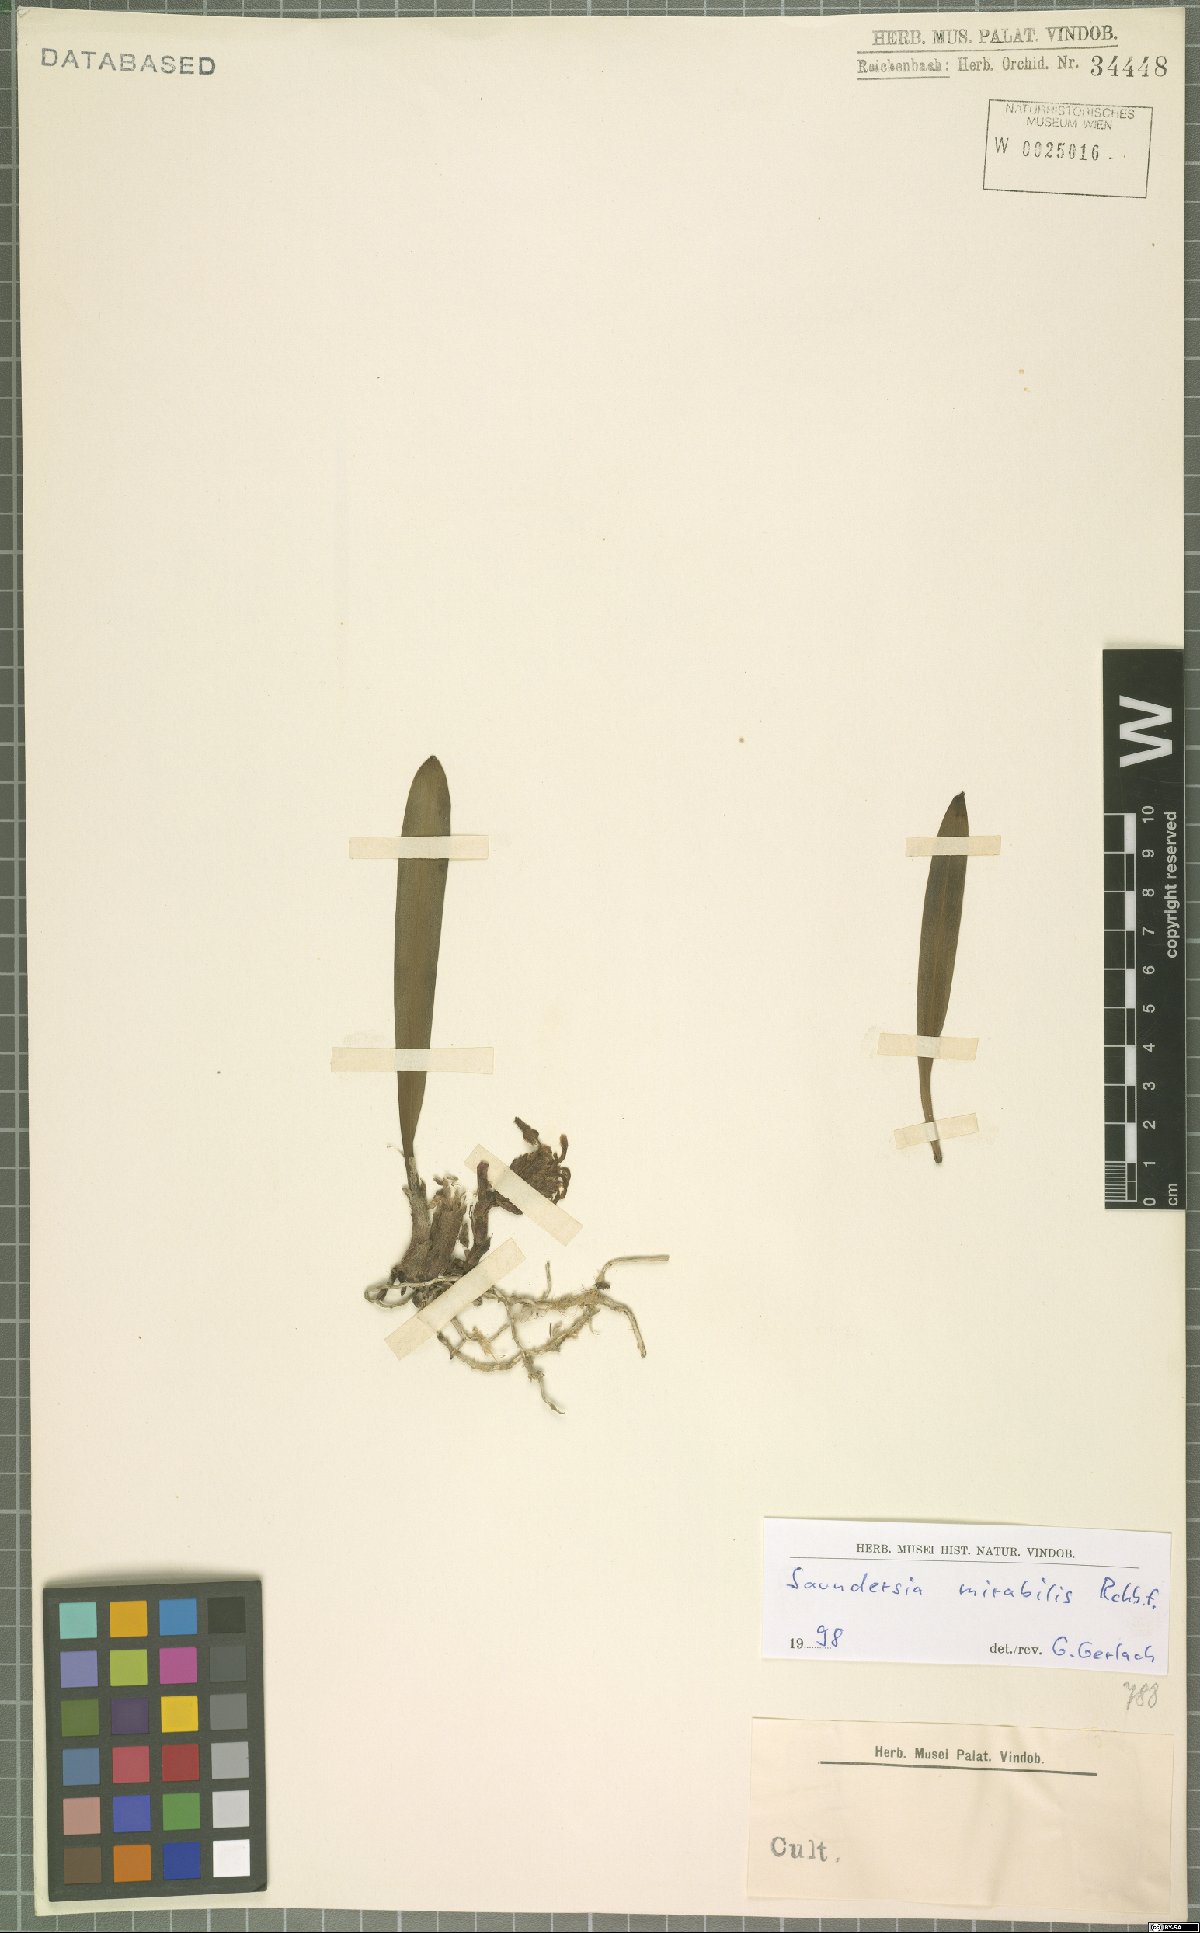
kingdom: Plantae
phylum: Tracheophyta
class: Liliopsida
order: Asparagales
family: Orchidaceae
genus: Saundersia
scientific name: Saundersia mirabilis
